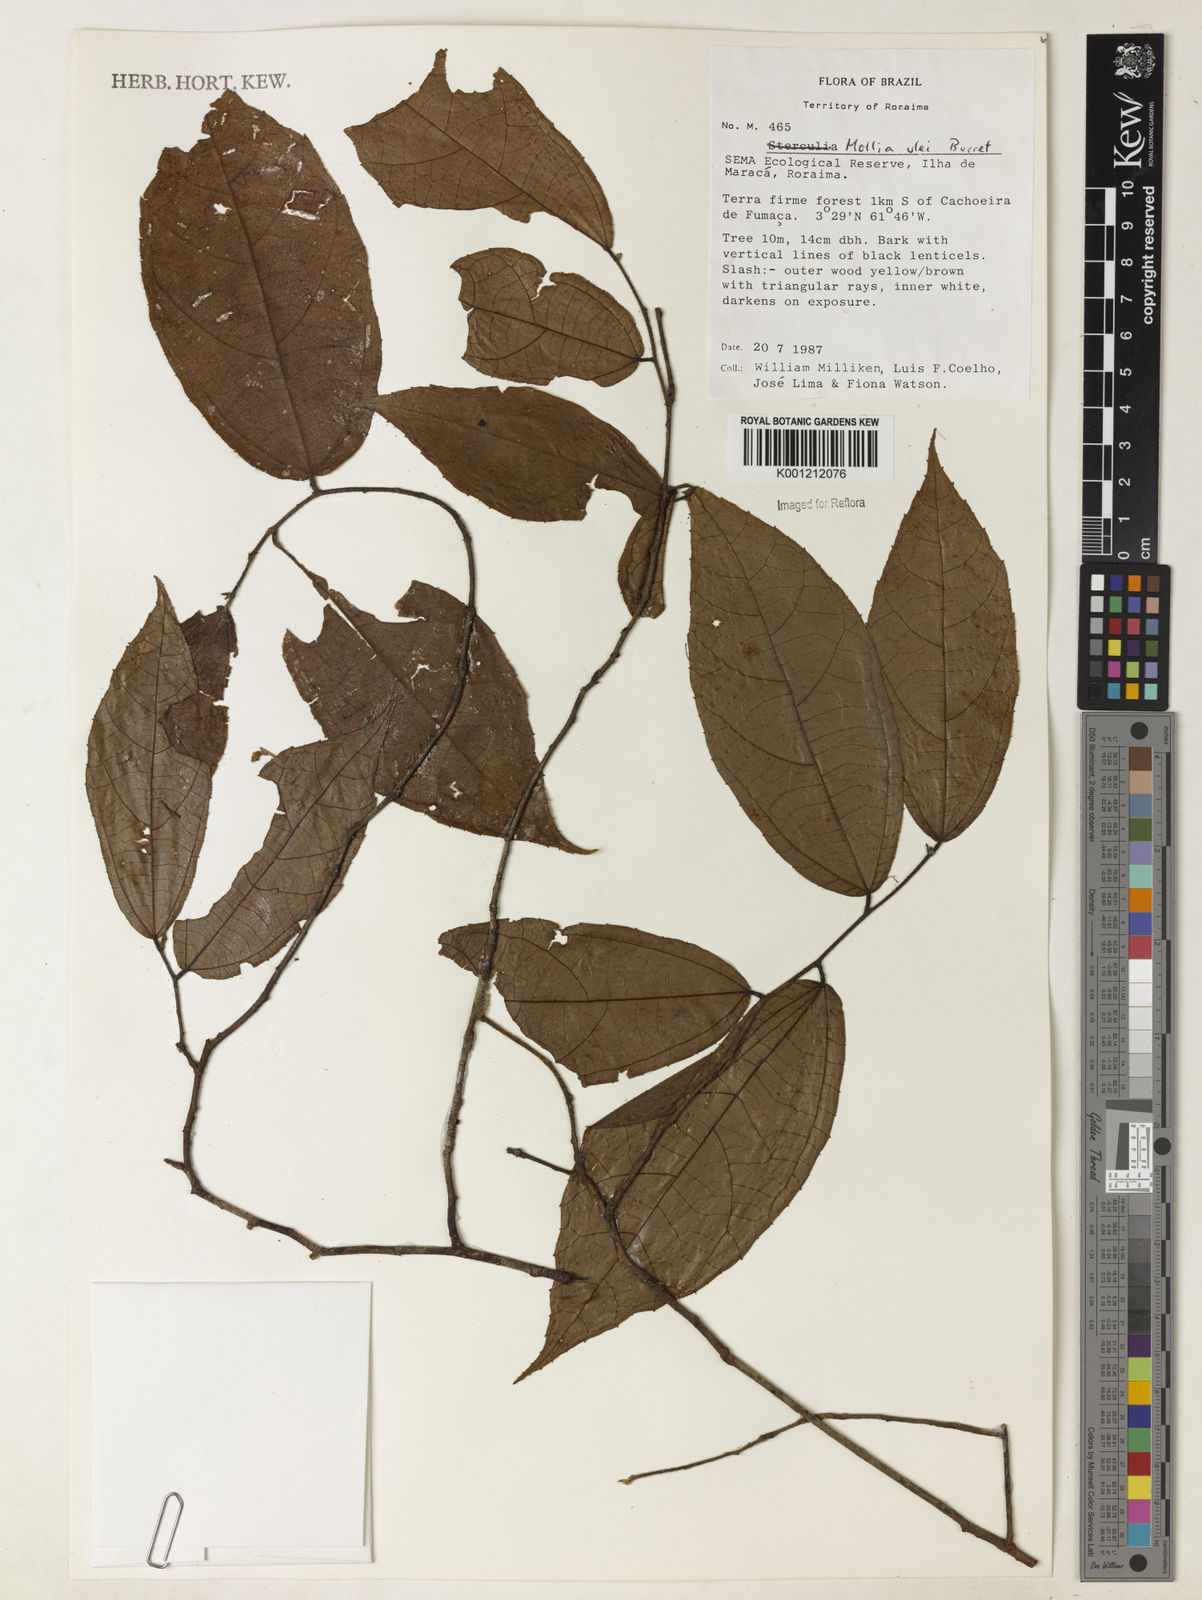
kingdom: Plantae
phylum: Tracheophyta
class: Magnoliopsida
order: Malvales
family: Malvaceae
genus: Mollia
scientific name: Mollia ulei
